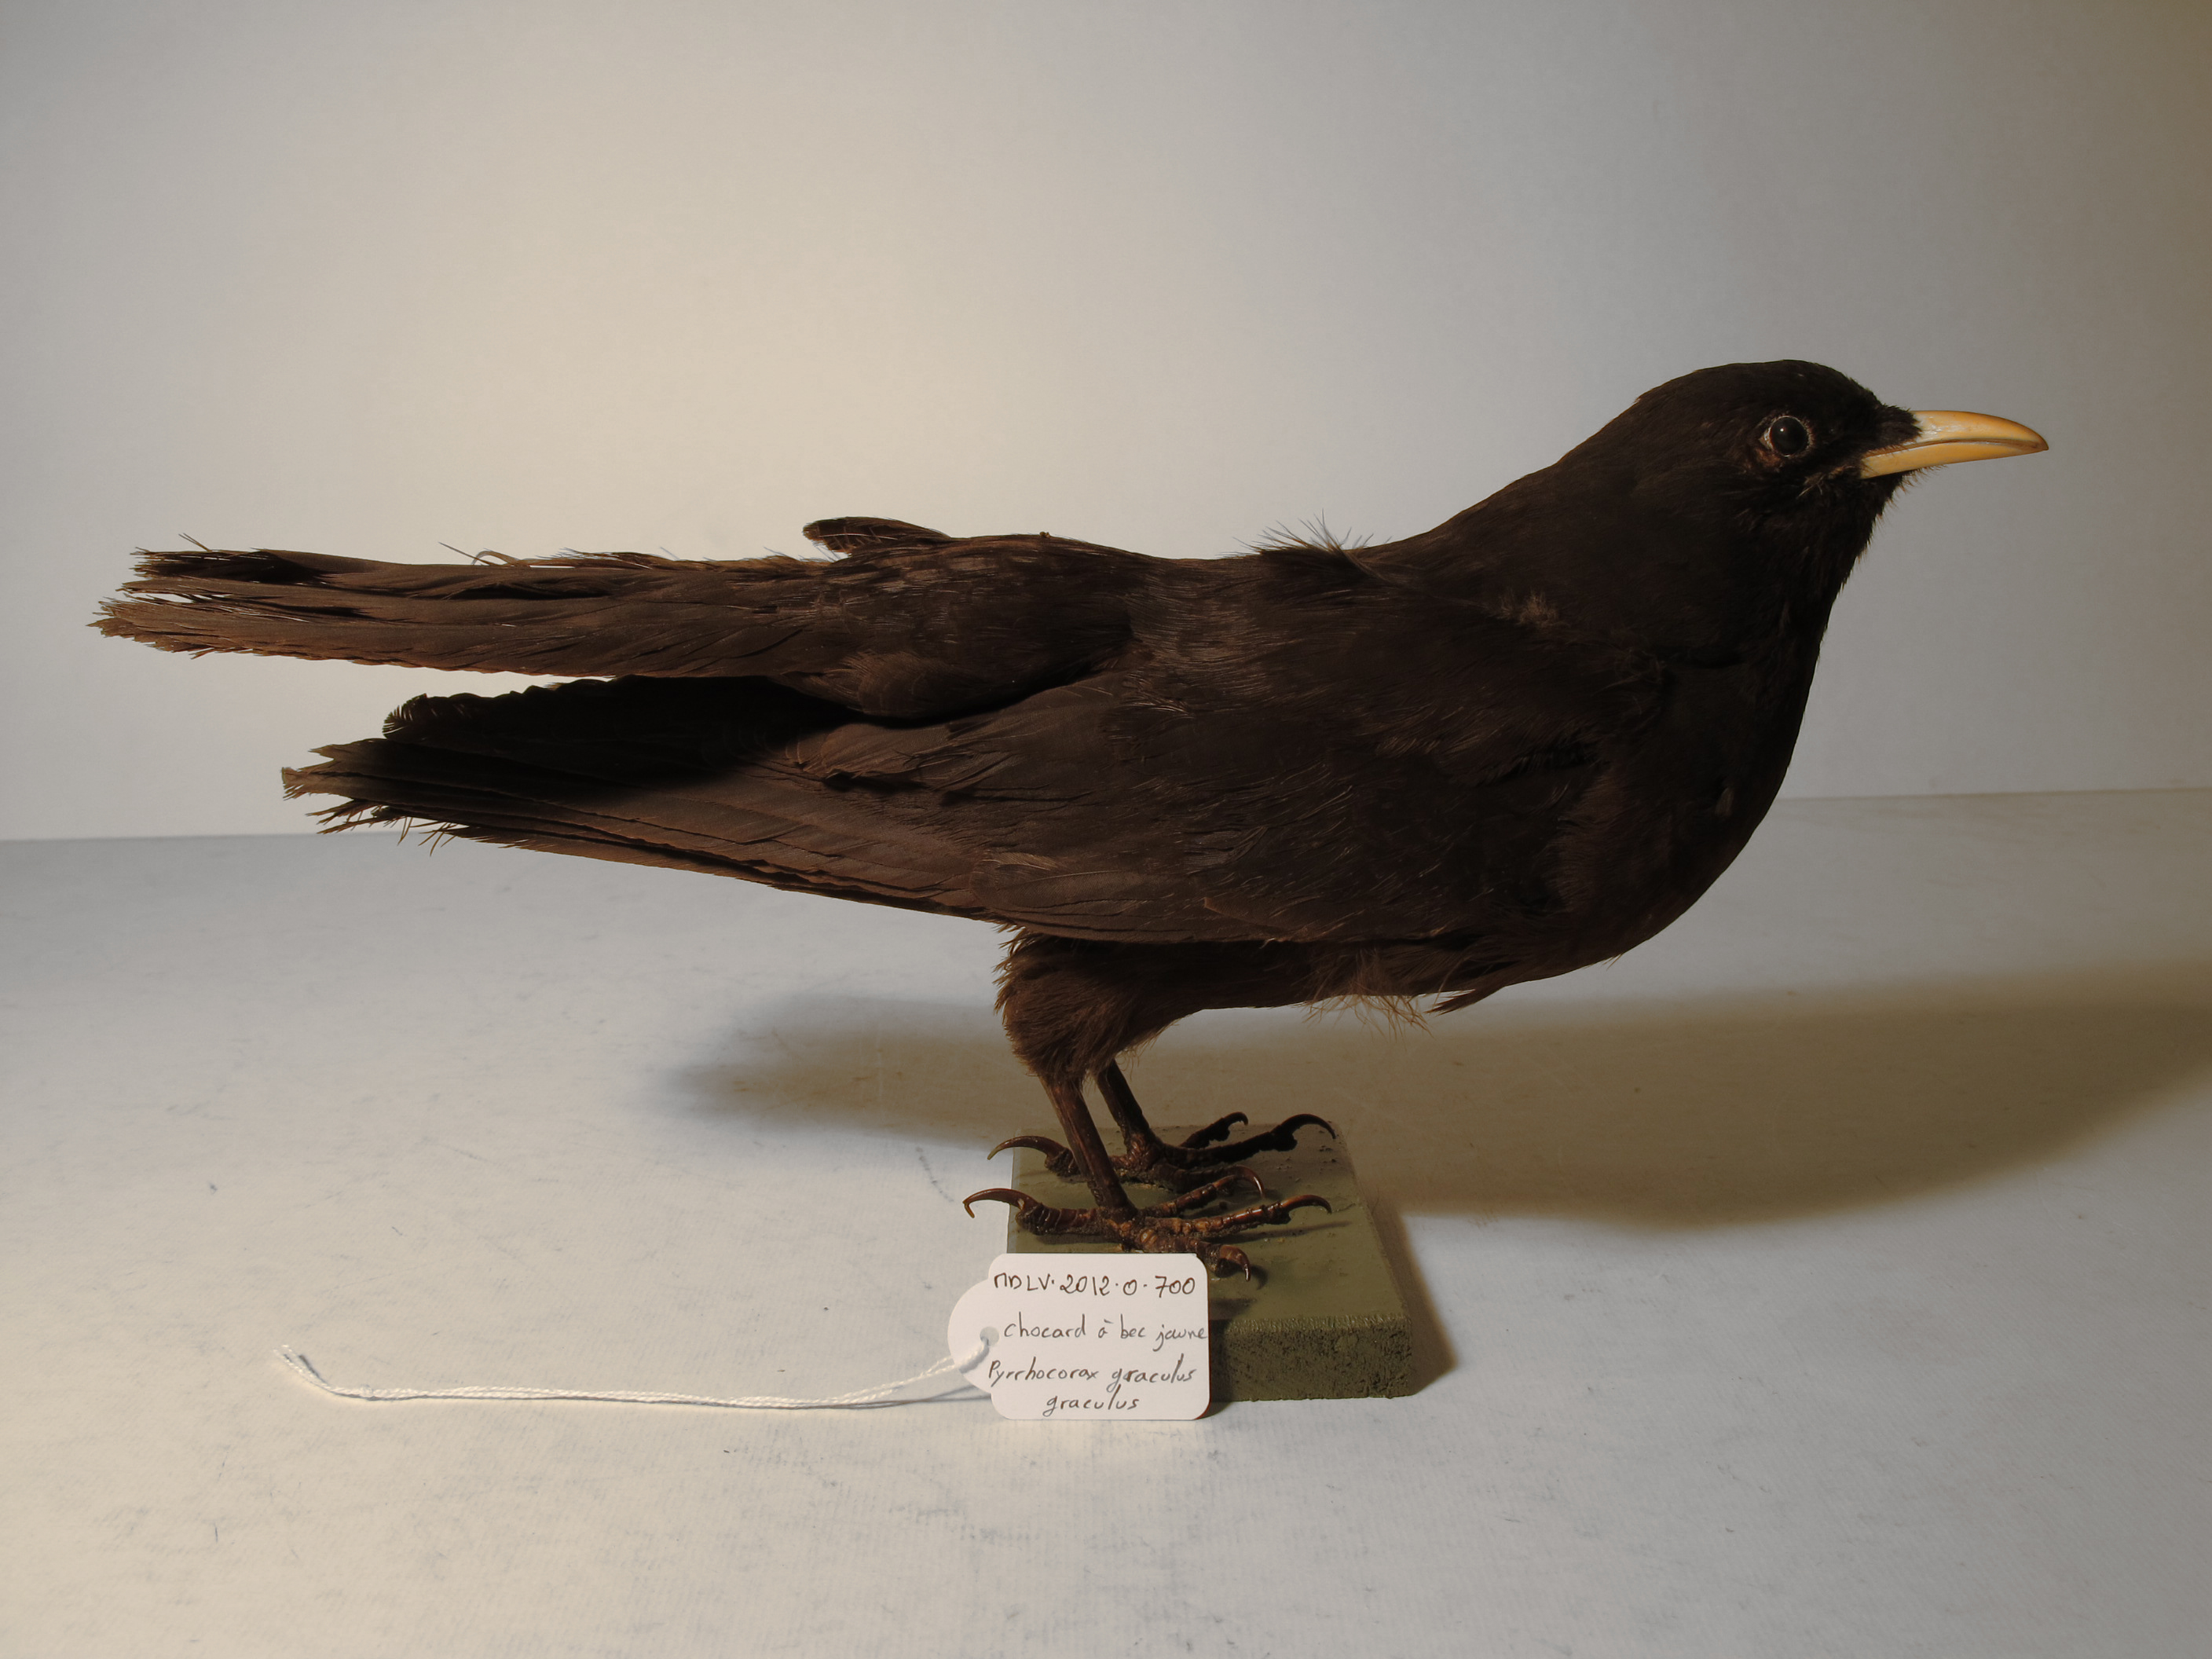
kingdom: Animalia
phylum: Chordata
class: Aves
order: Passeriformes
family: Corvidae
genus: Pyrrhocorax
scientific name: Pyrrhocorax graculus
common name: Yellow-billed Chough
